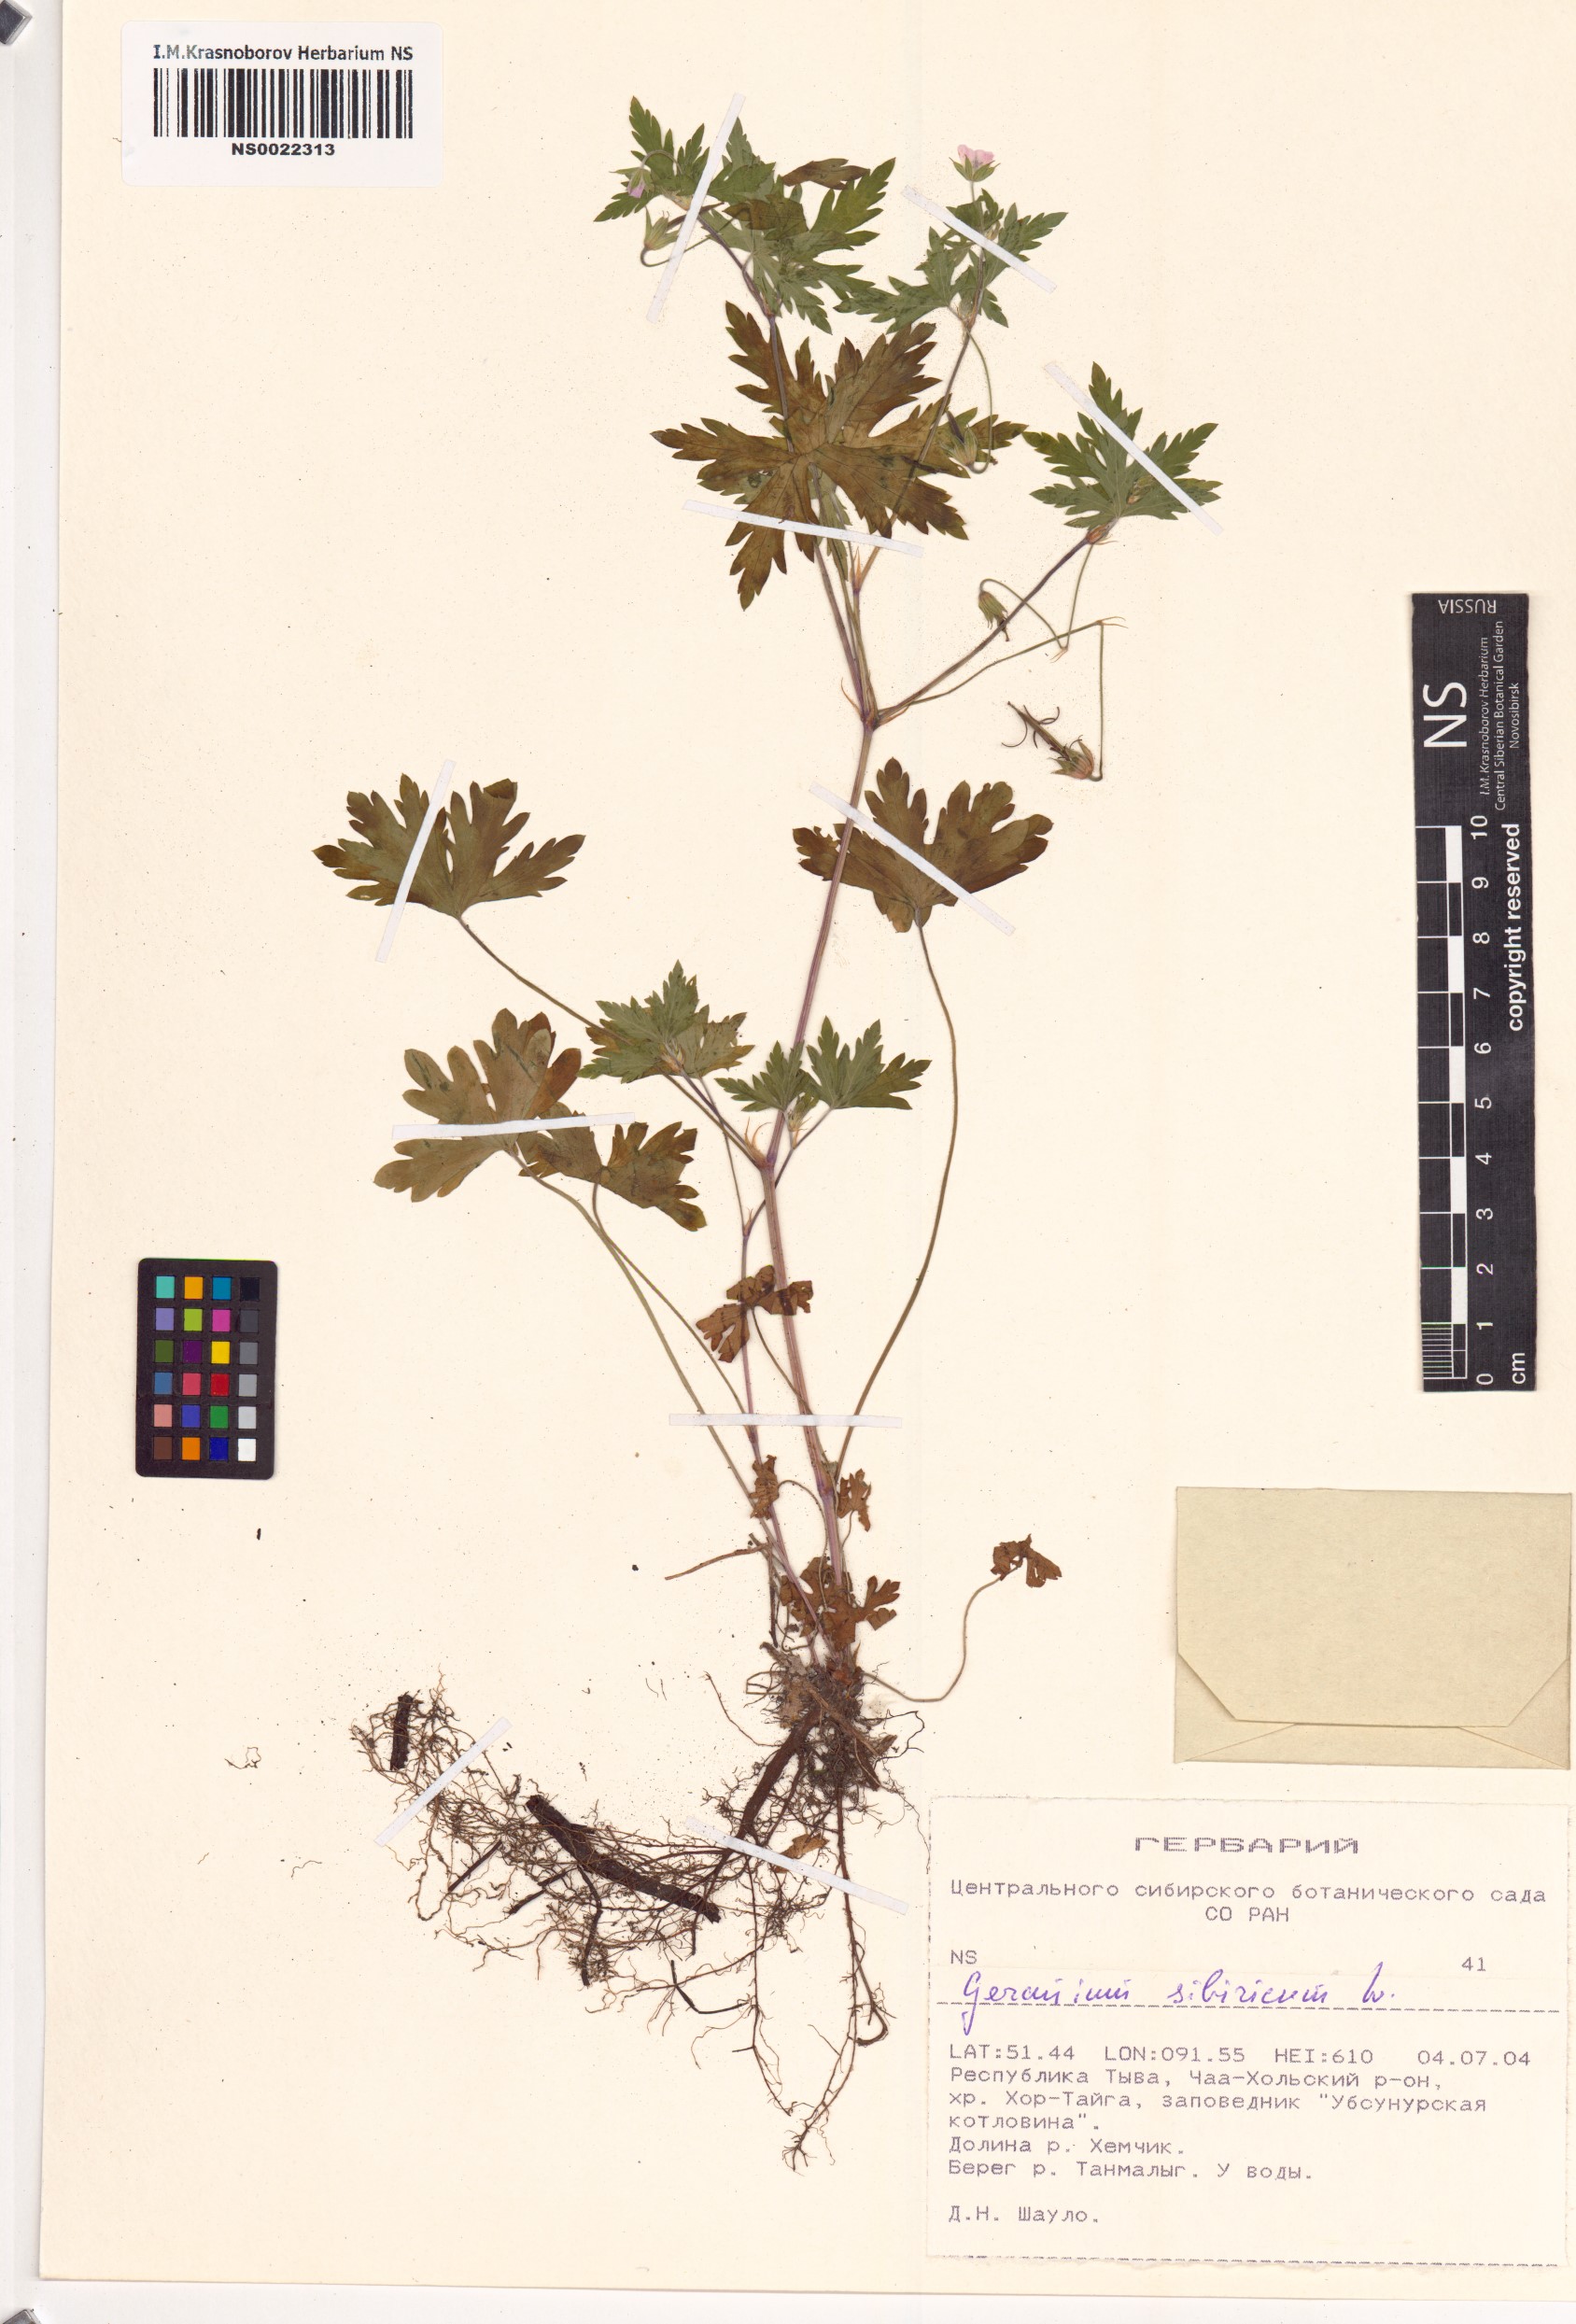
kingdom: Plantae
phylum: Tracheophyta
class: Magnoliopsida
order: Geraniales
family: Geraniaceae
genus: Geranium
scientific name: Geranium sibiricum
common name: Siberian crane's-bill
